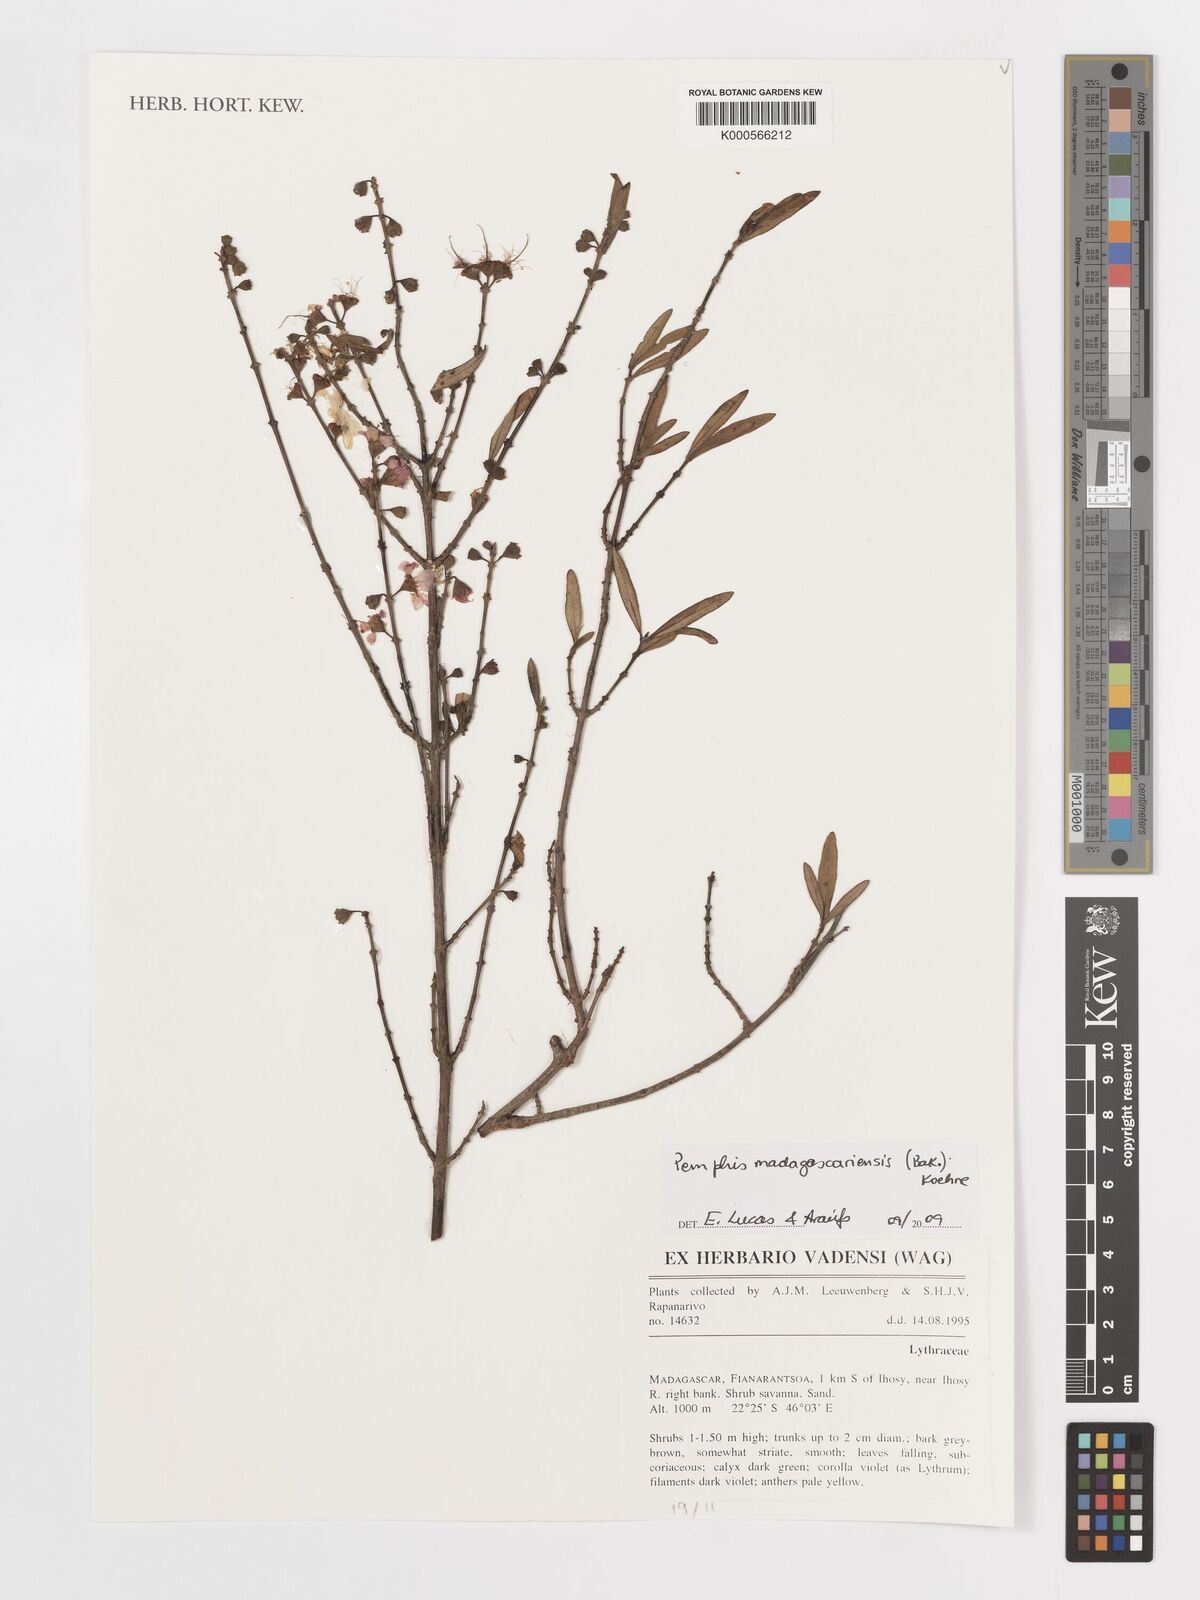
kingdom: Plantae
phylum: Tracheophyta
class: Magnoliopsida
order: Myrtales
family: Lythraceae
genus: Koehneria
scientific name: Koehneria madagascariensis
